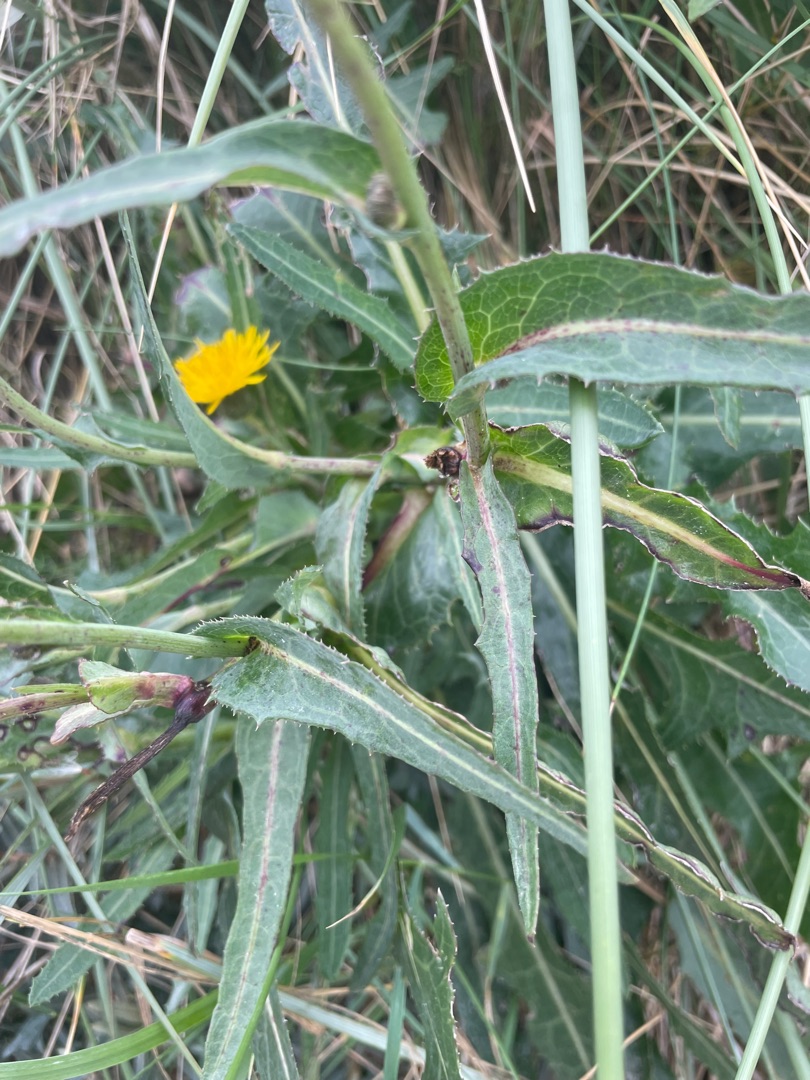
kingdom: Plantae
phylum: Tracheophyta
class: Magnoliopsida
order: Asterales
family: Asteraceae
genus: Sonchus
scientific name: Sonchus arvensis
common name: Ager-svinemælk
